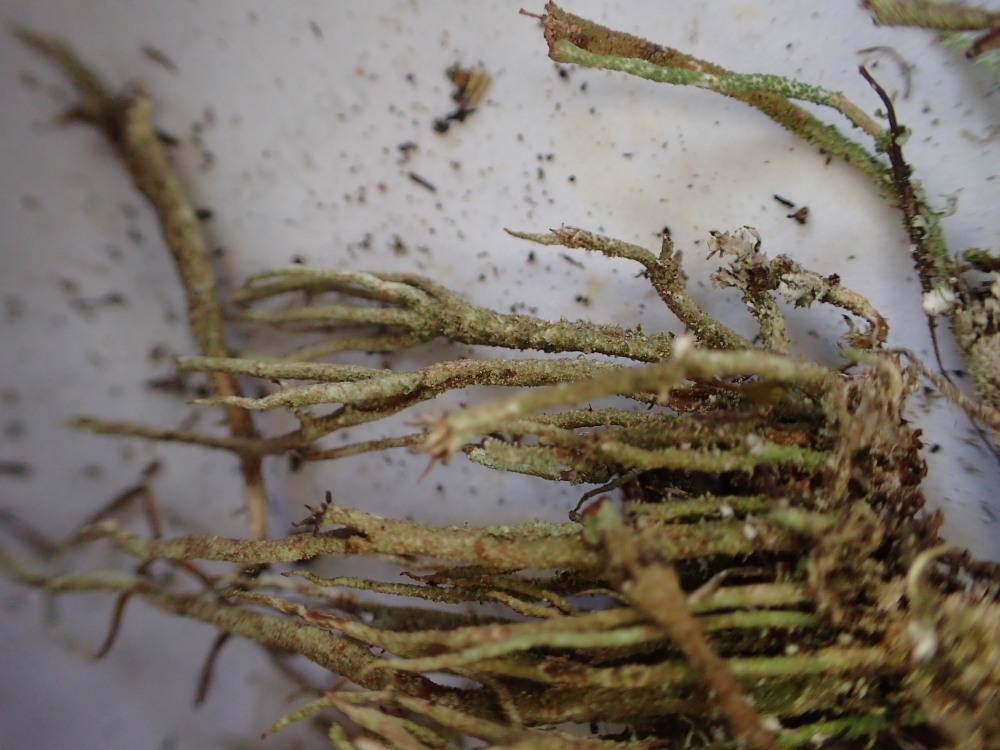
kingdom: Fungi
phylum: Ascomycota
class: Lecanoromycetes
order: Lecanorales
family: Cladoniaceae
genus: Cladonia
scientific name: Cladonia glauca
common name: grågrøn bægerlav
